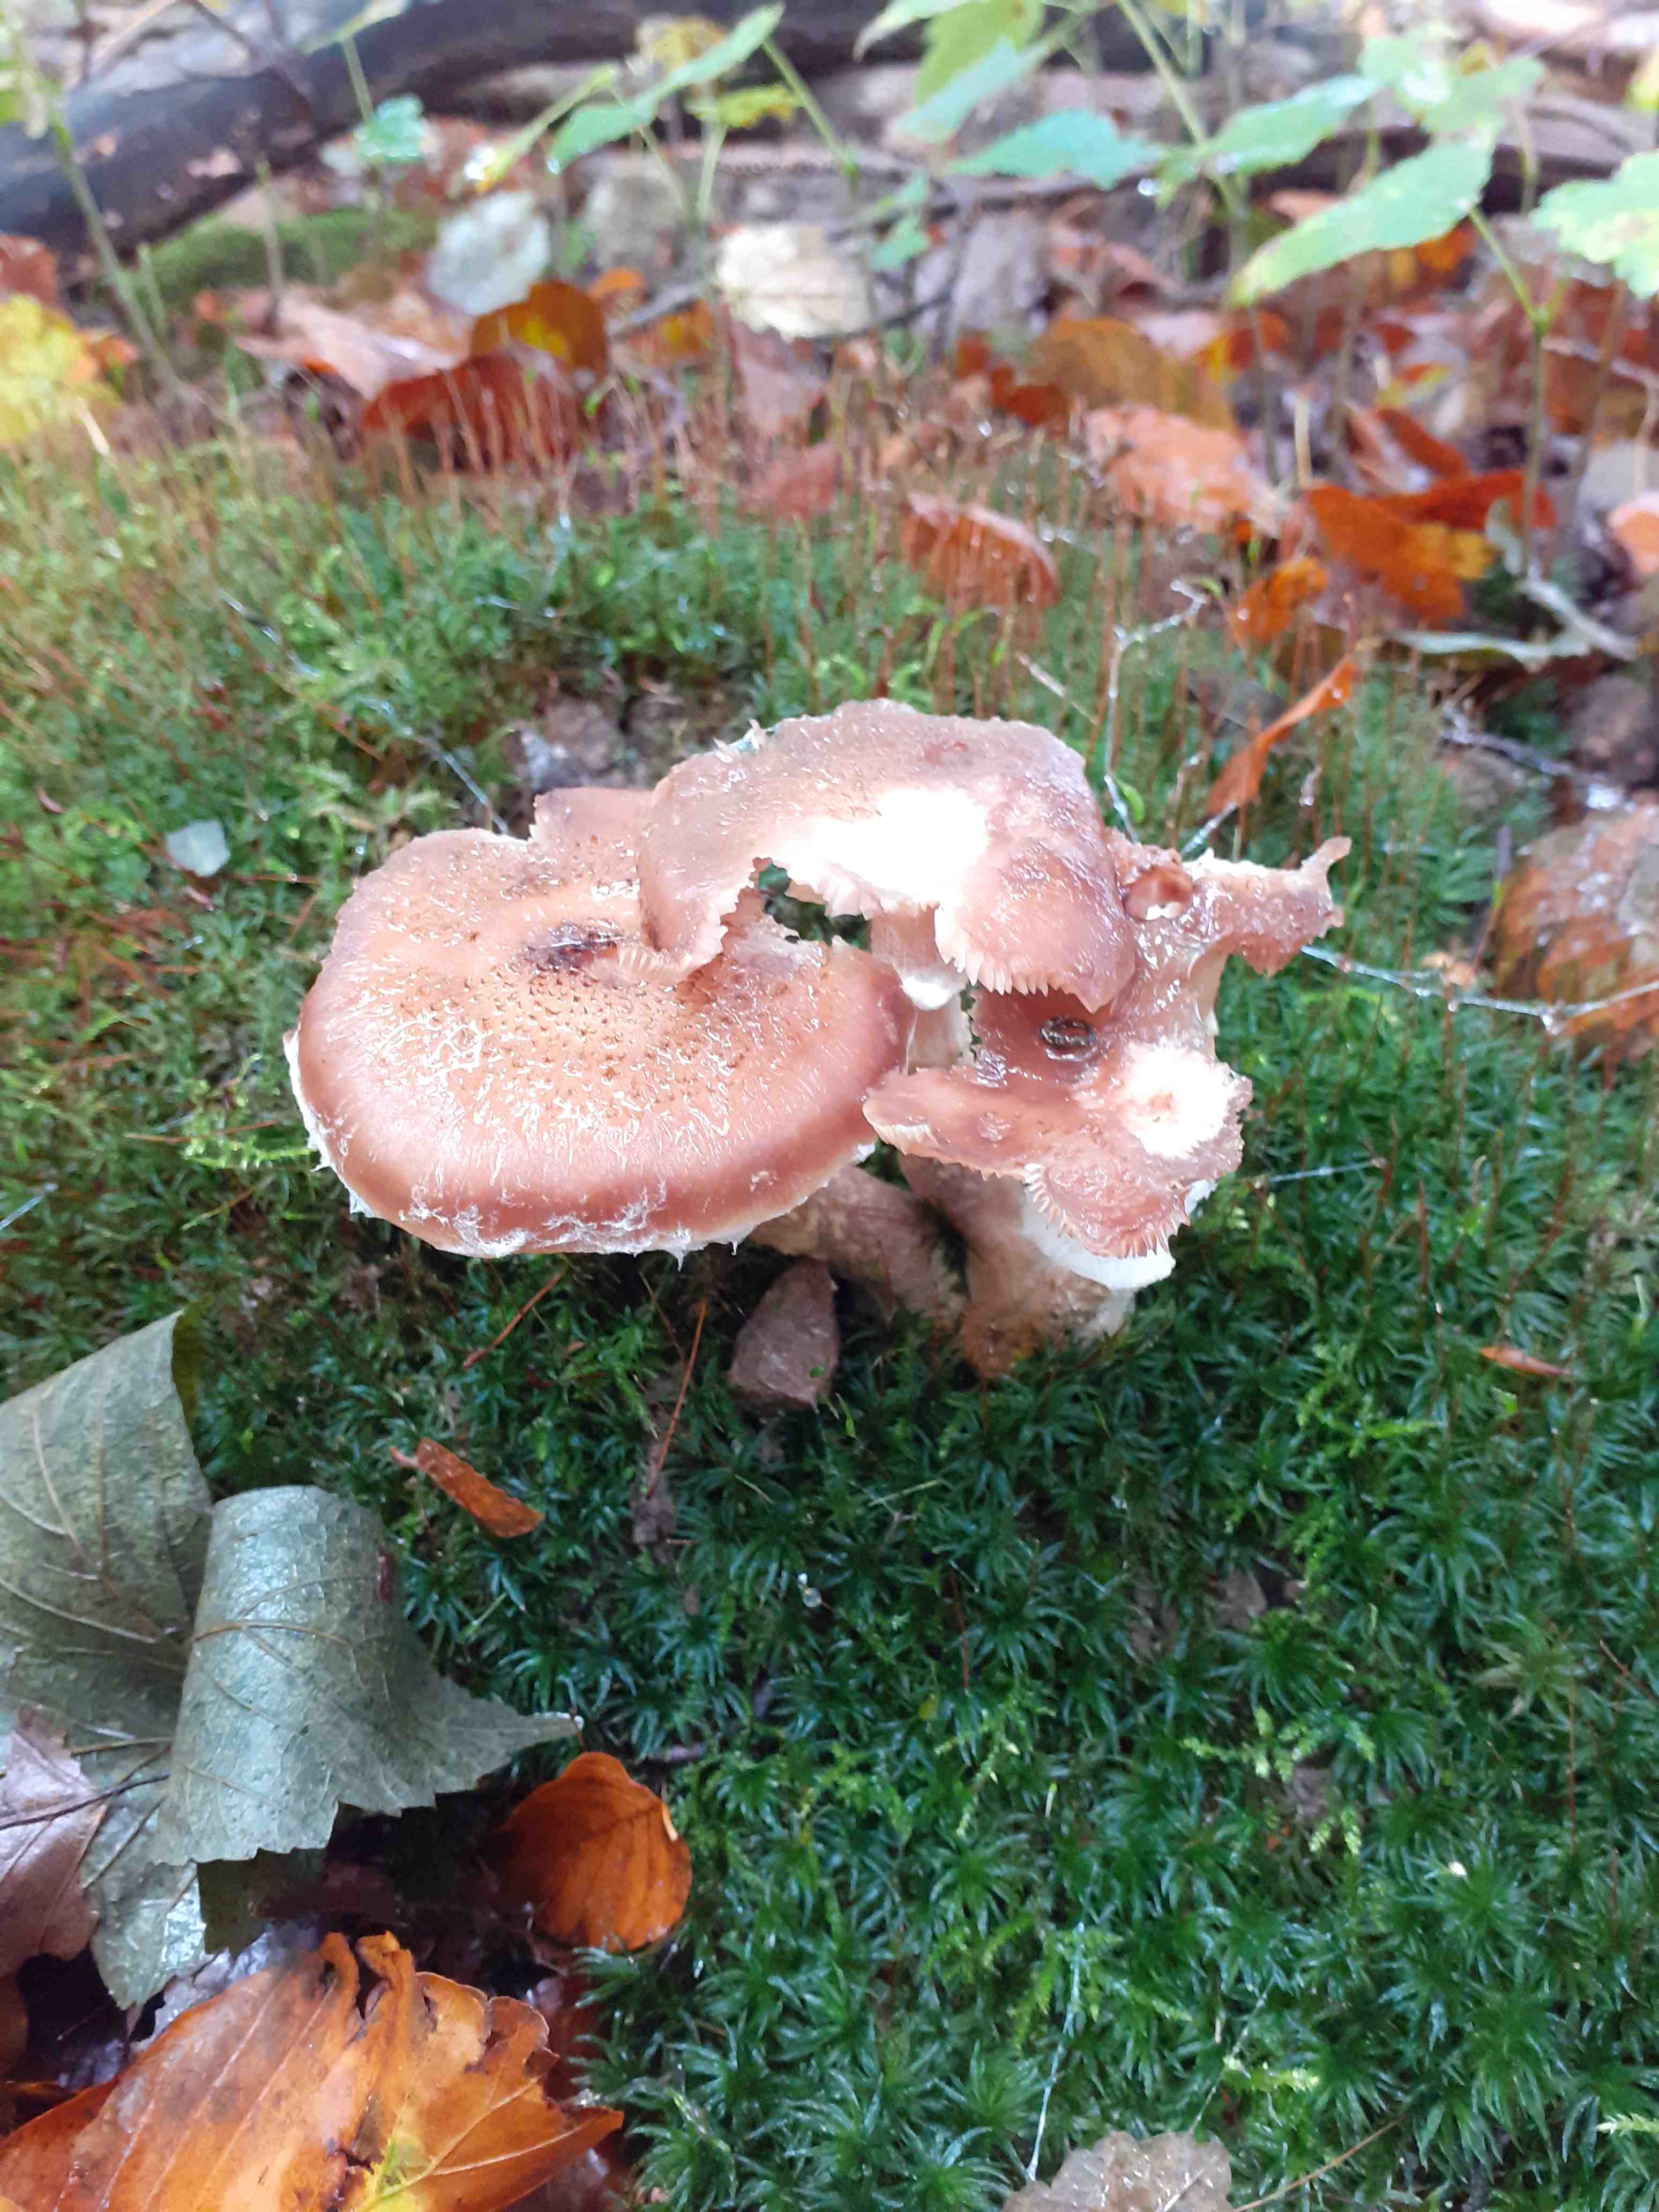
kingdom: Fungi
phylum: Basidiomycota
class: Agaricomycetes
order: Agaricales
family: Physalacriaceae
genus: Armillaria
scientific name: Armillaria
